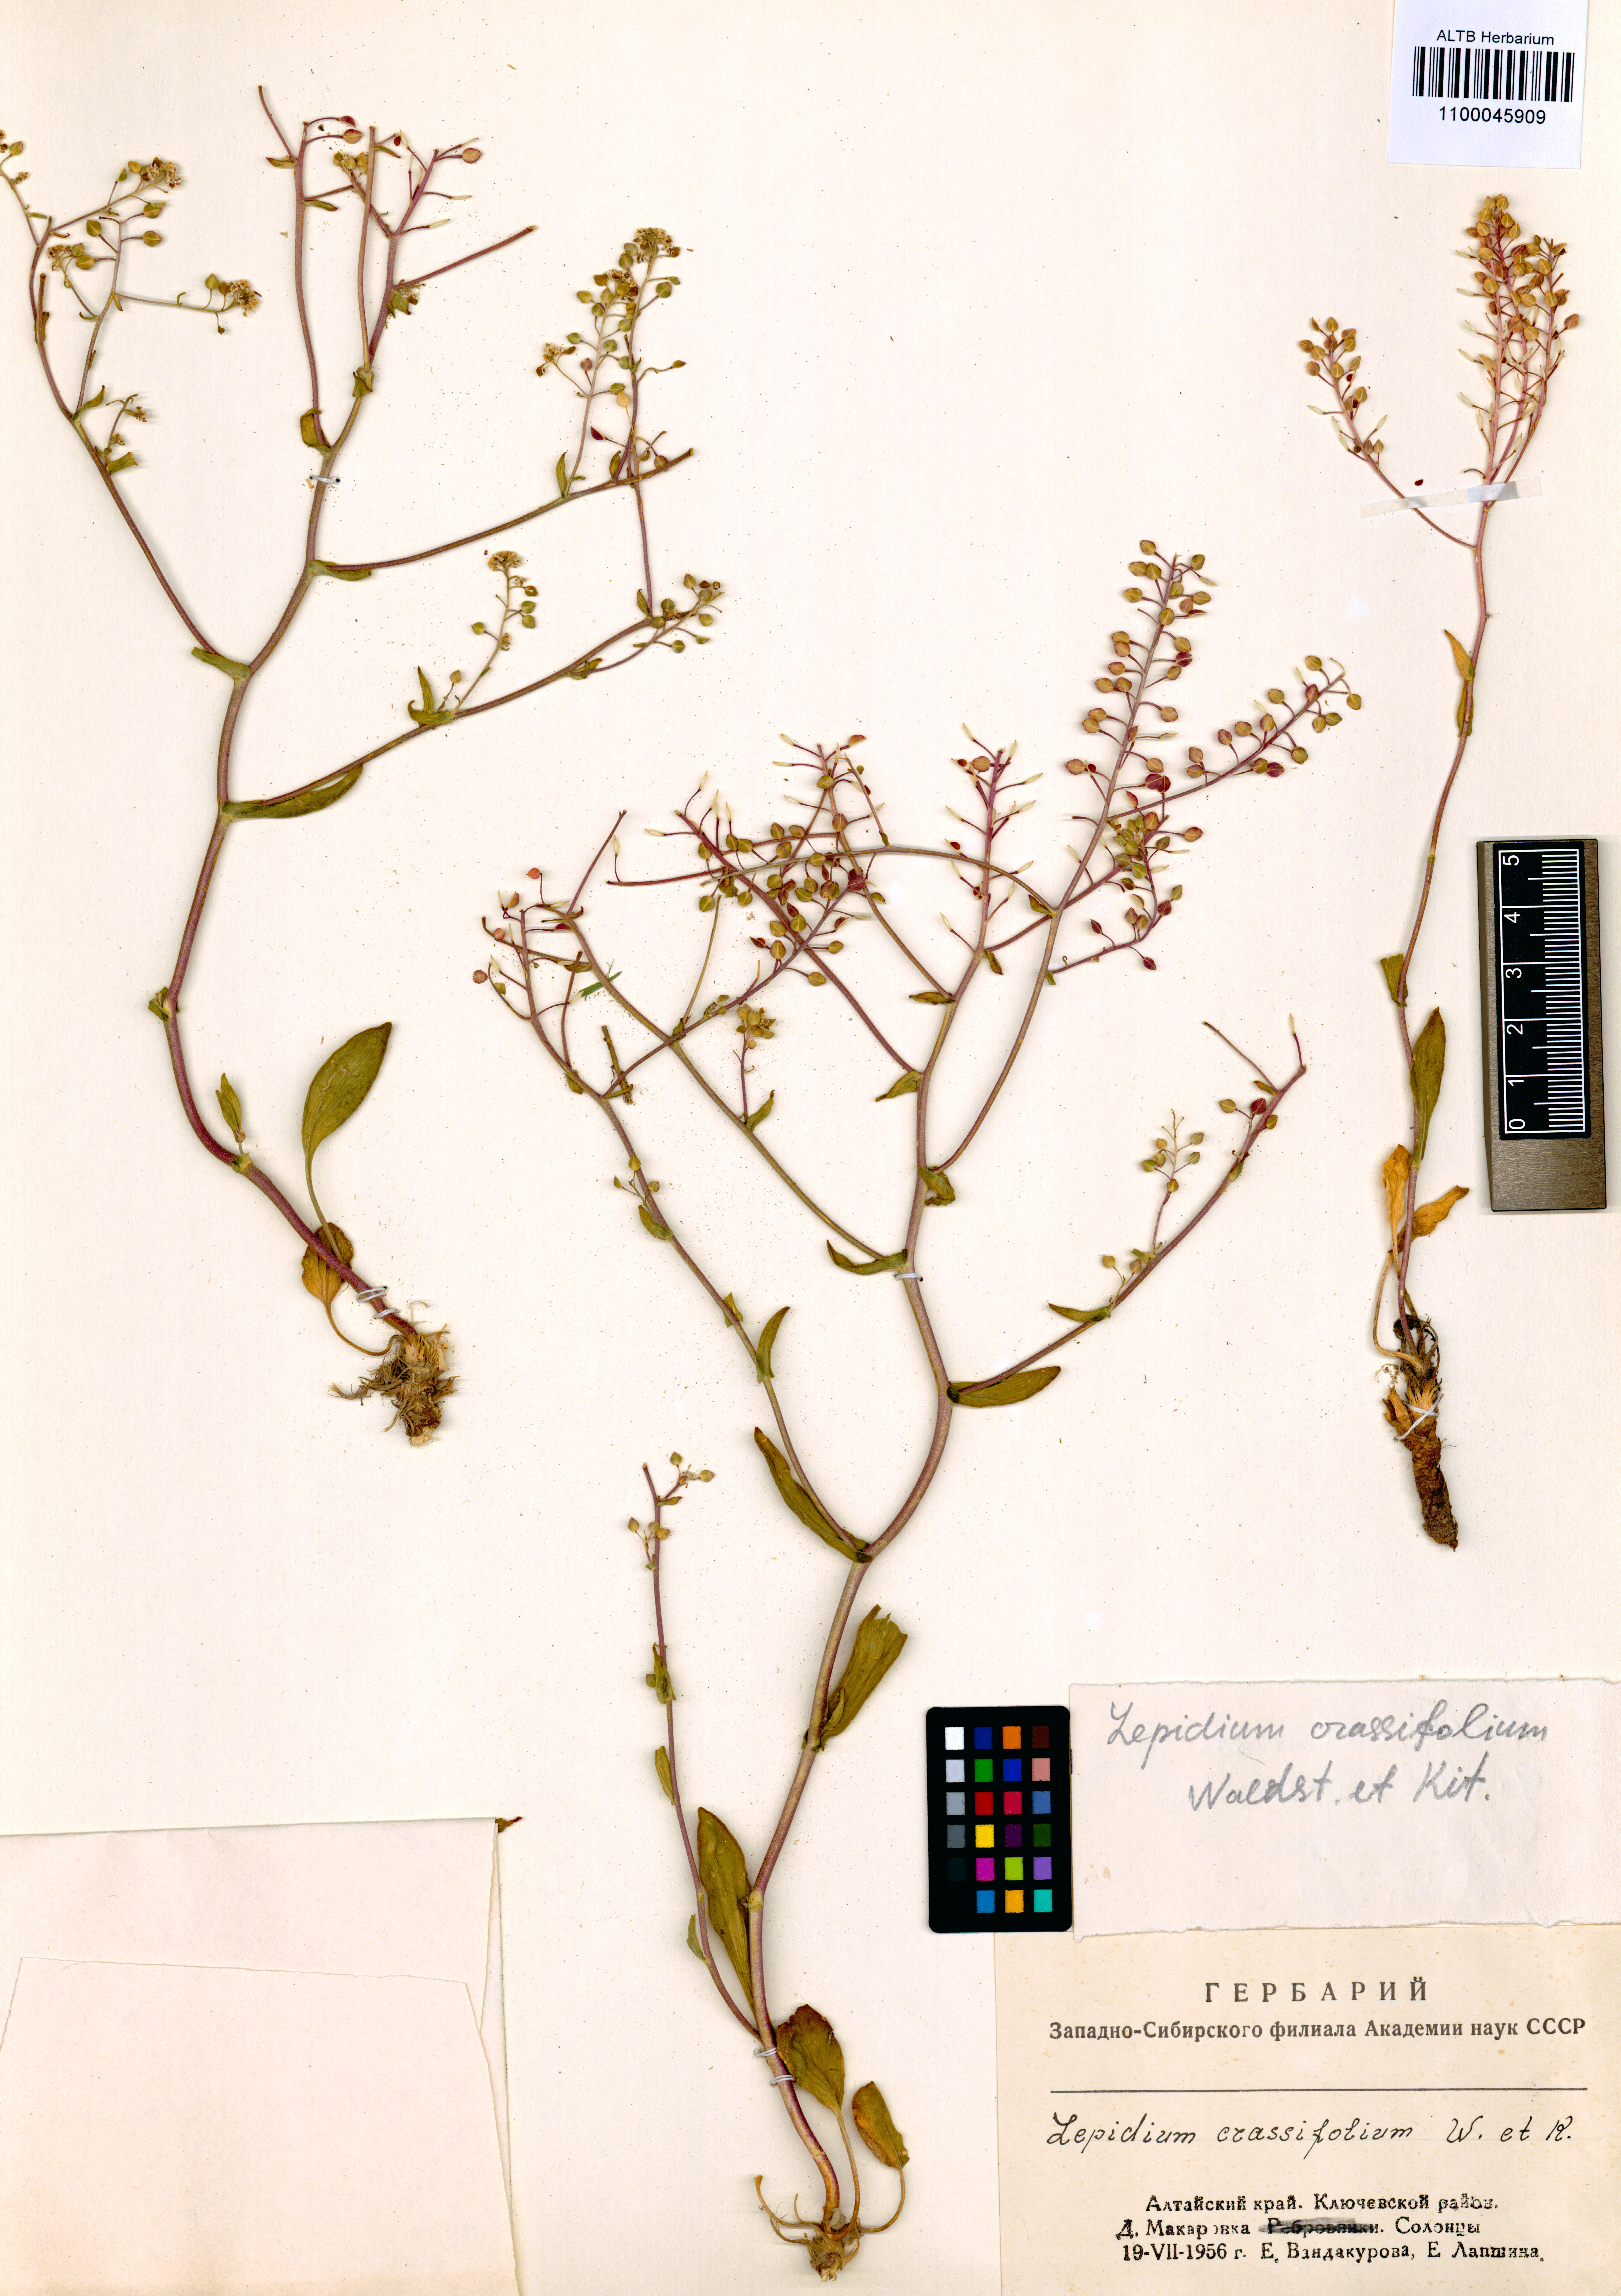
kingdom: Plantae
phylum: Tracheophyta
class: Magnoliopsida
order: Brassicales
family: Brassicaceae
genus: Lepidium
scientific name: Lepidium cartilagineum
